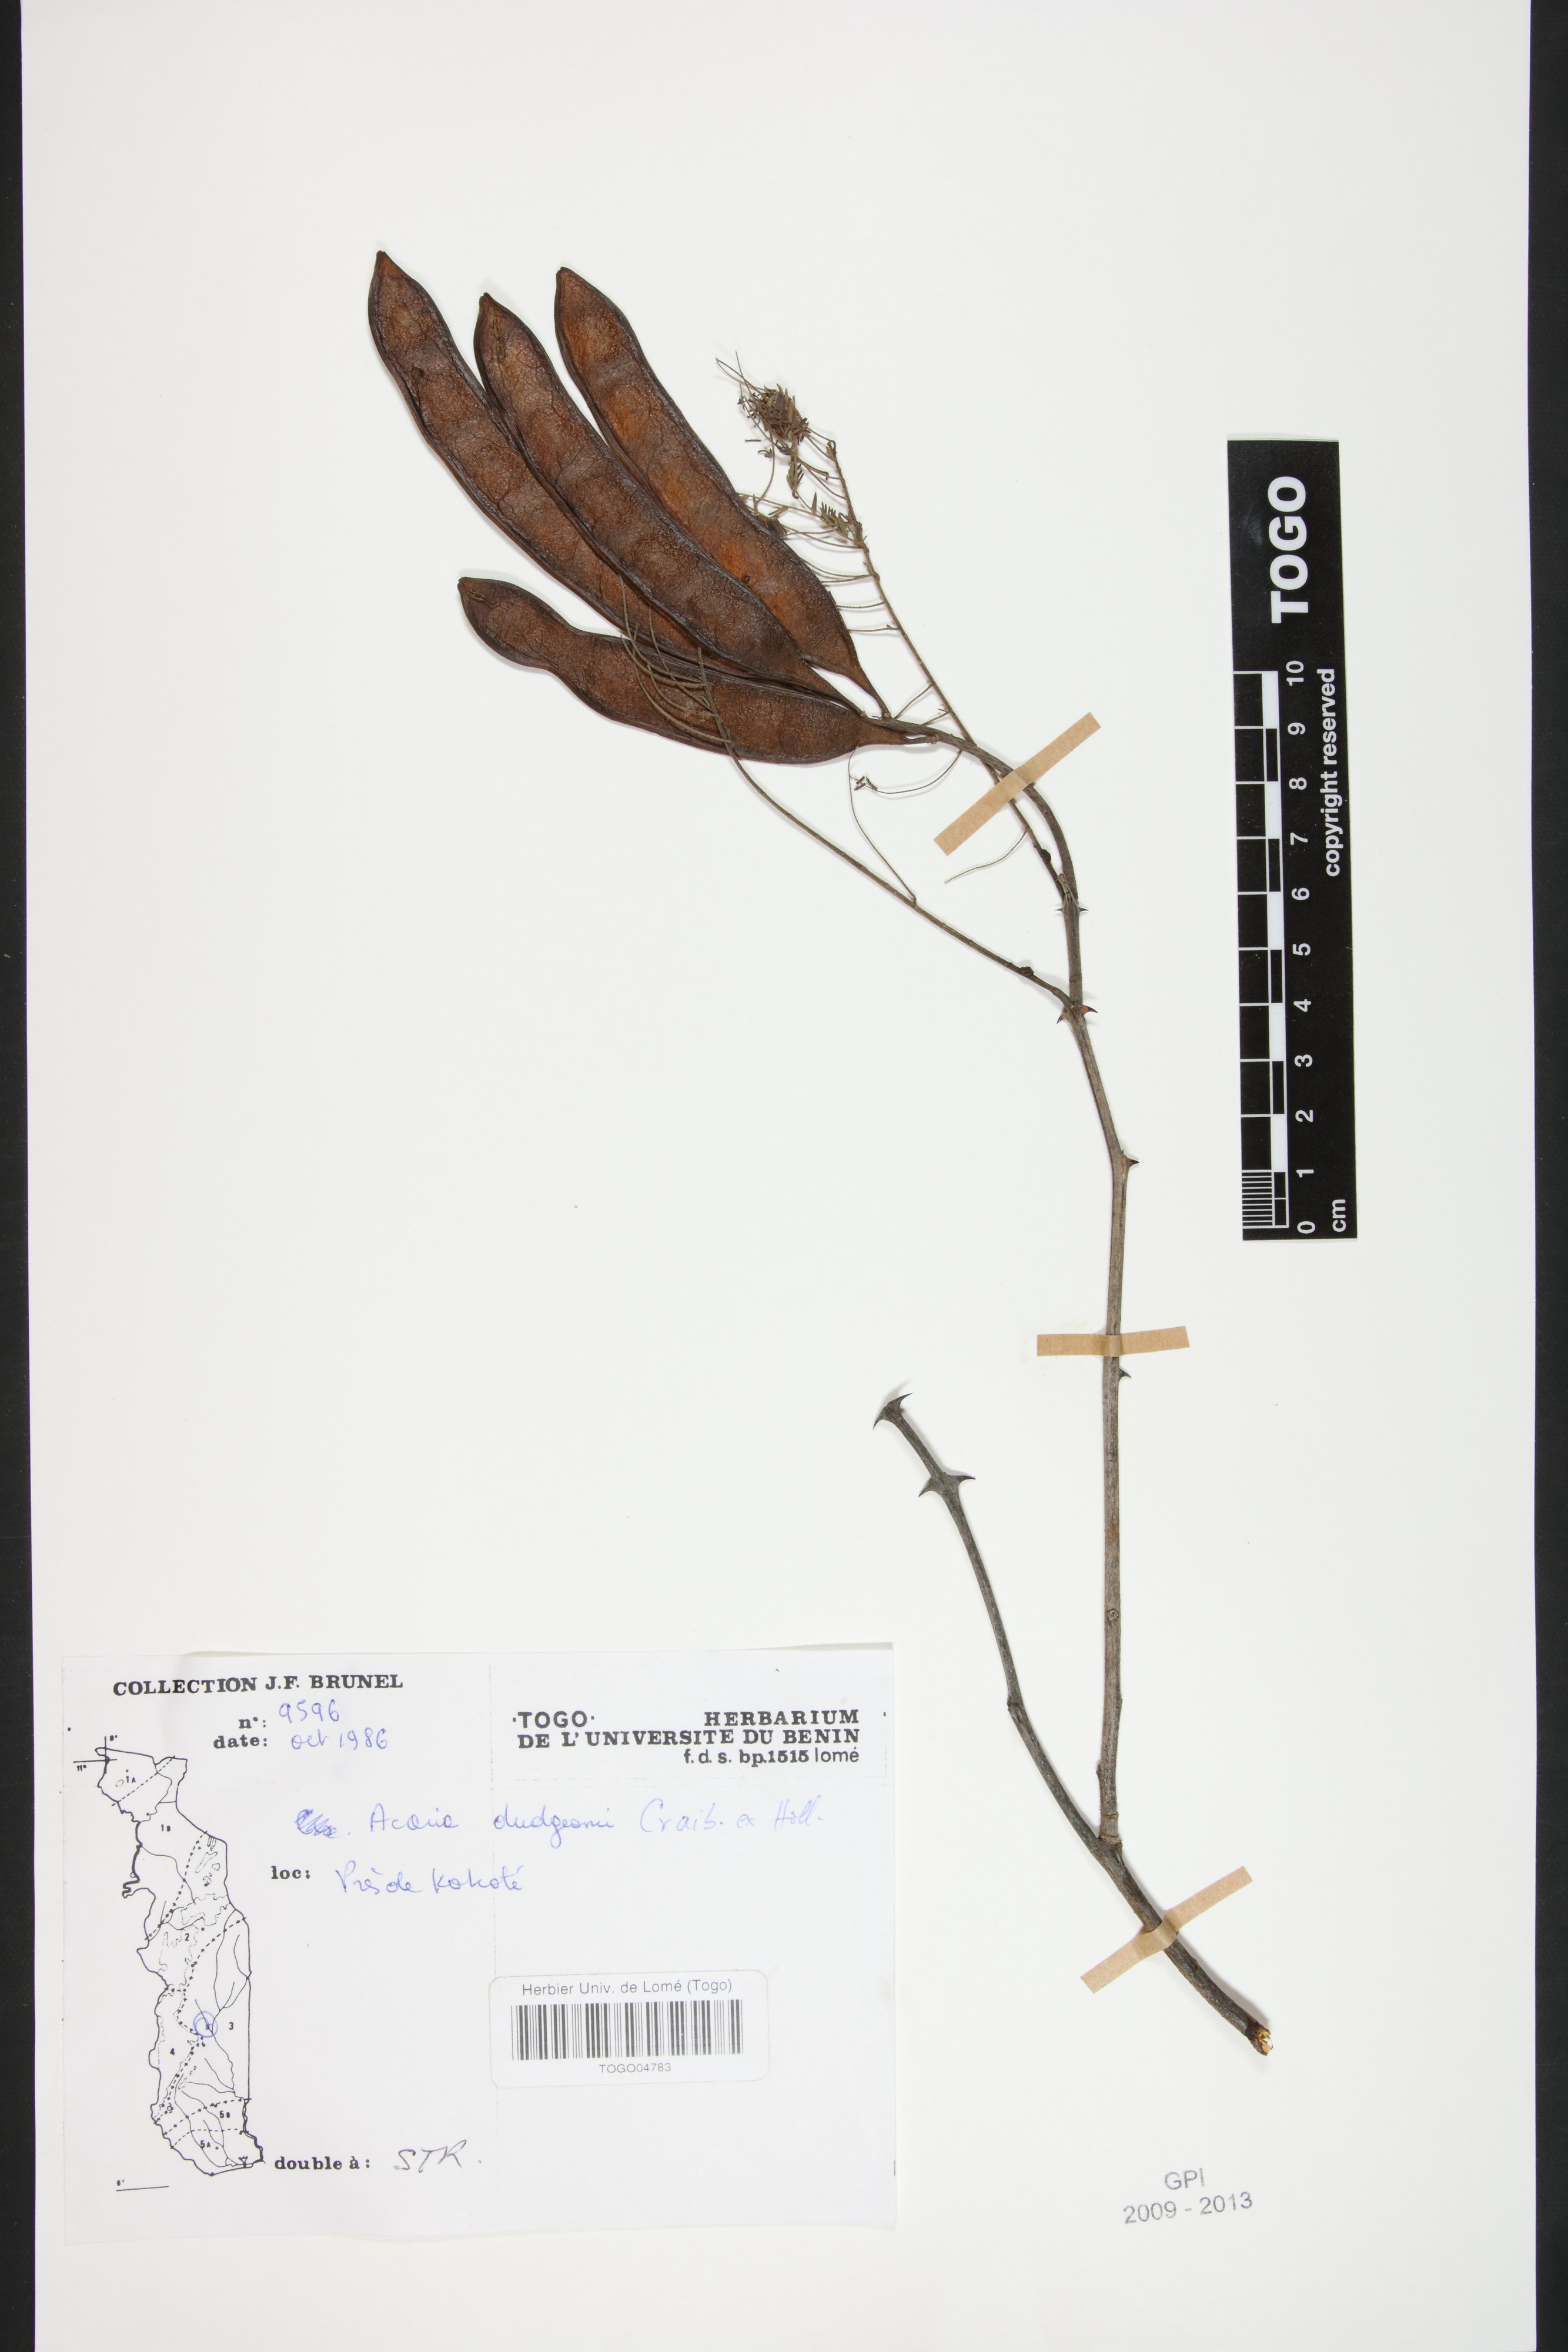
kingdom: Plantae
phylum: Tracheophyta
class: Magnoliopsida
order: Fabales
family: Fabaceae
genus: Senegalia
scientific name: Senegalia dudgeonii
